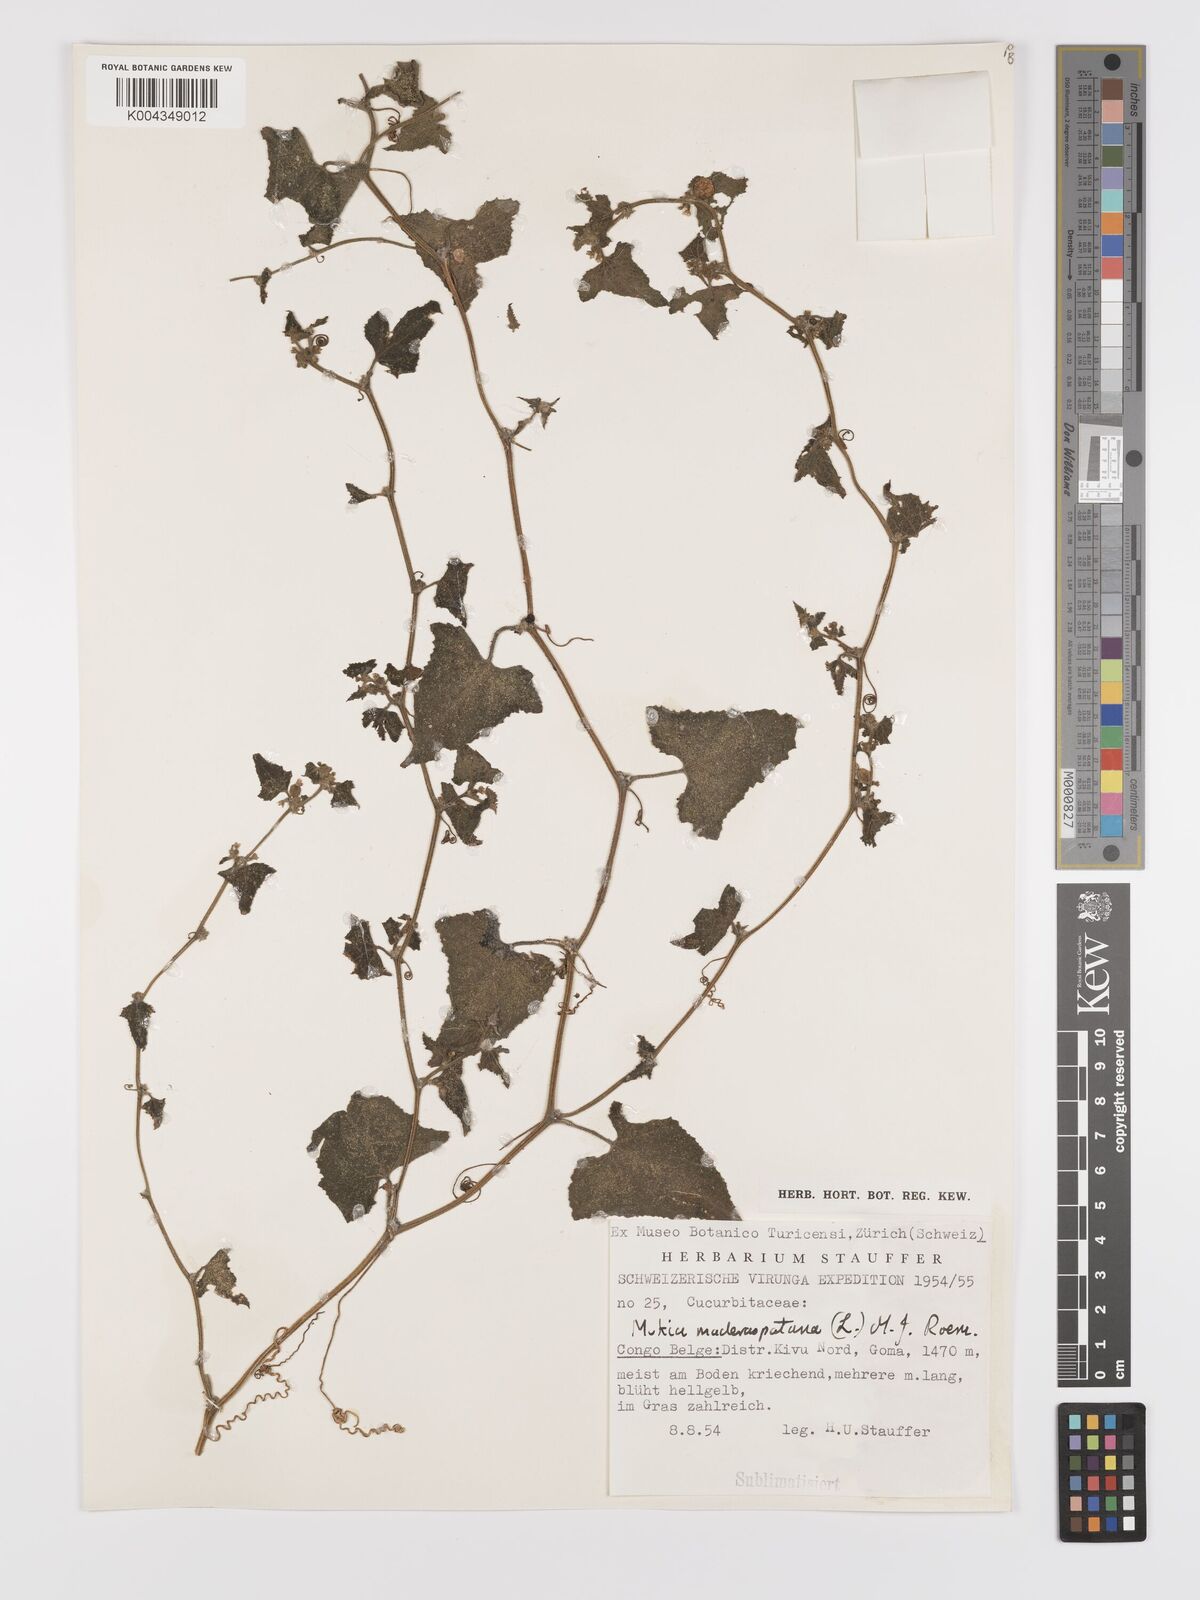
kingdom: Plantae
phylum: Tracheophyta
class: Magnoliopsida
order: Cucurbitales
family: Cucurbitaceae
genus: Cucumis
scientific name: Cucumis maderaspatanus
